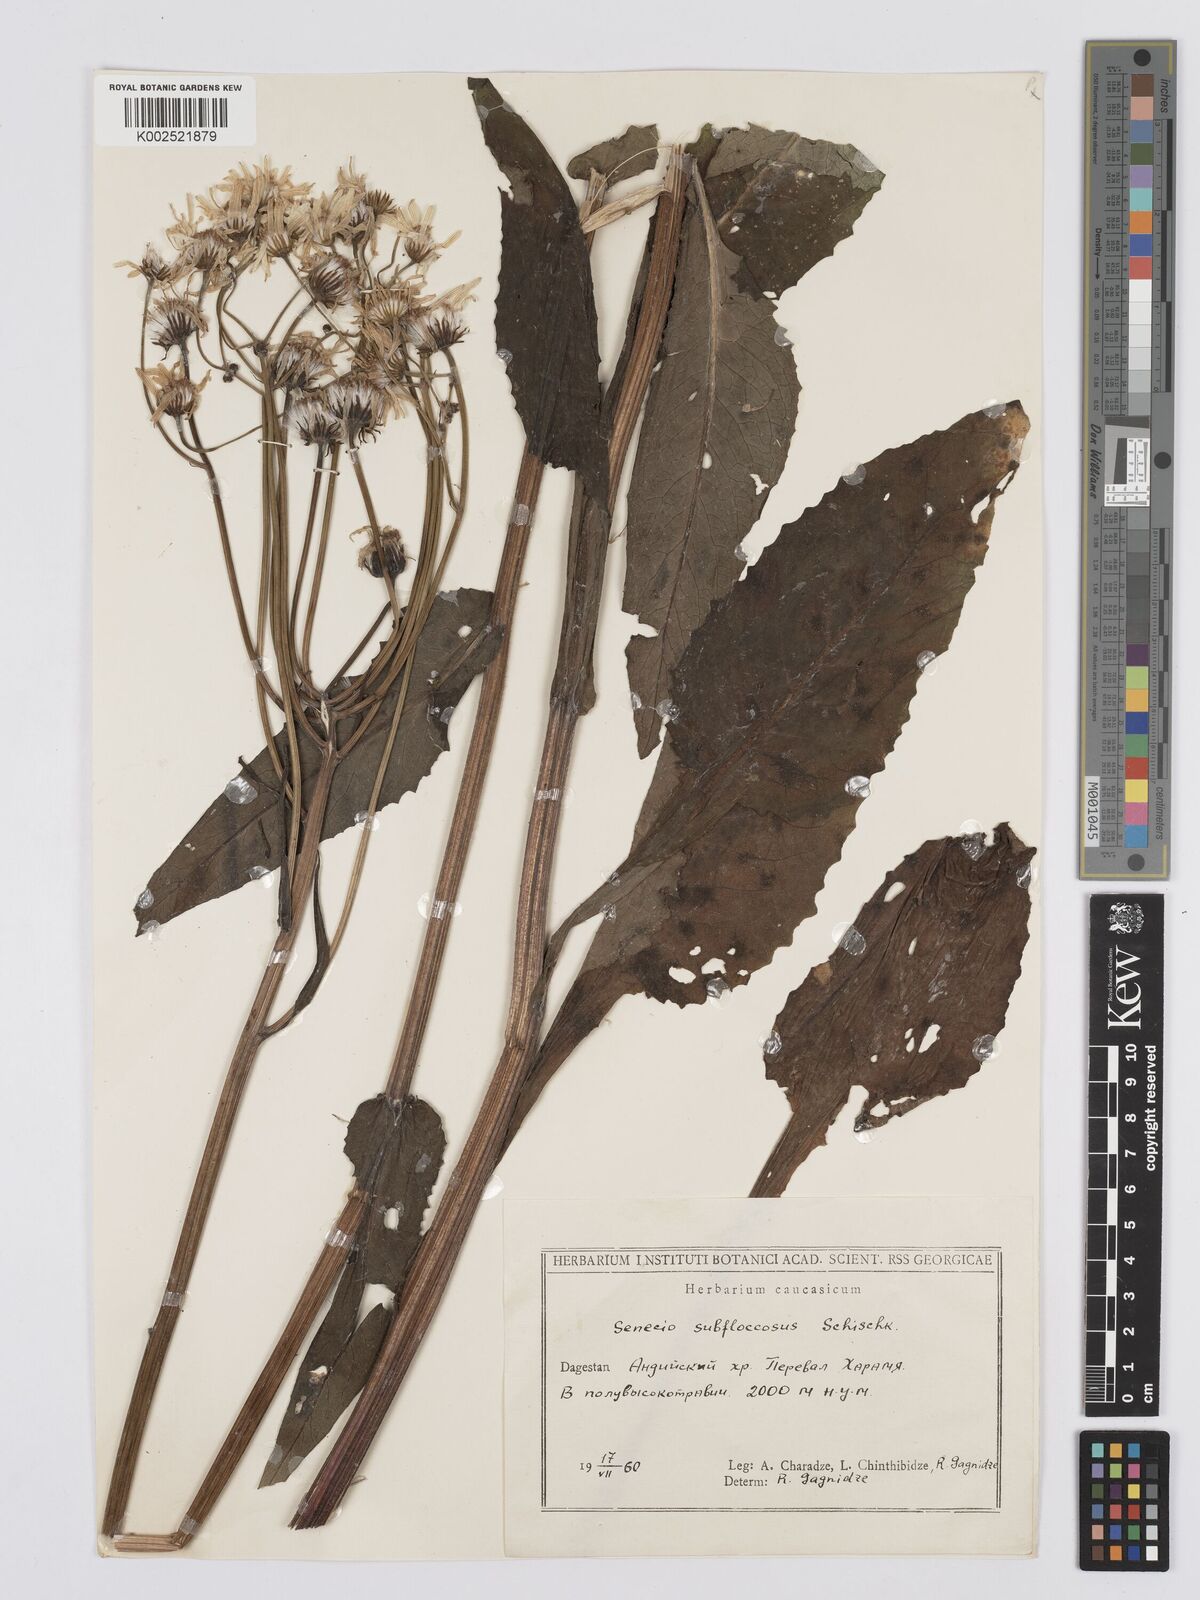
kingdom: Plantae
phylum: Tracheophyta
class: Magnoliopsida
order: Asterales
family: Asteraceae
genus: Tephroseris
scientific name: Tephroseris cladobotrys
